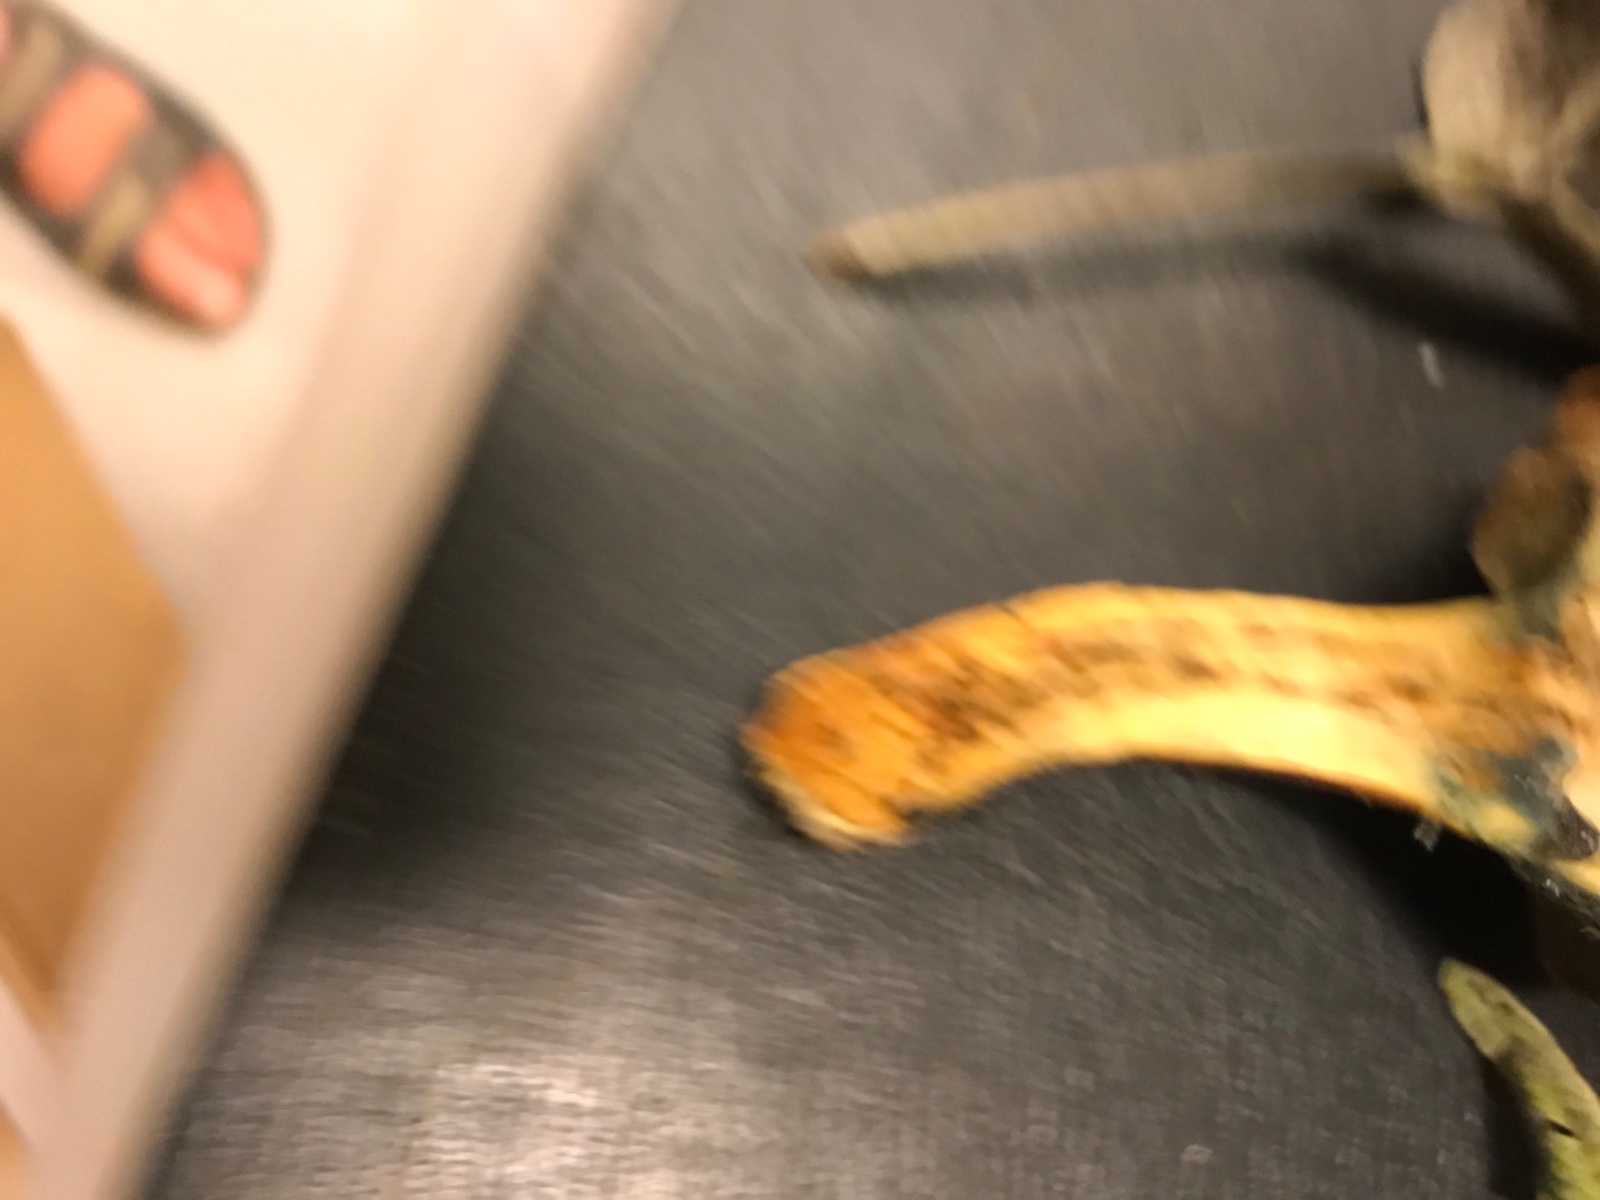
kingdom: Fungi
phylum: Basidiomycota
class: Agaricomycetes
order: Boletales
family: Boletaceae
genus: Hortiboletus
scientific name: Hortiboletus rubellus
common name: blodrød rørhat
